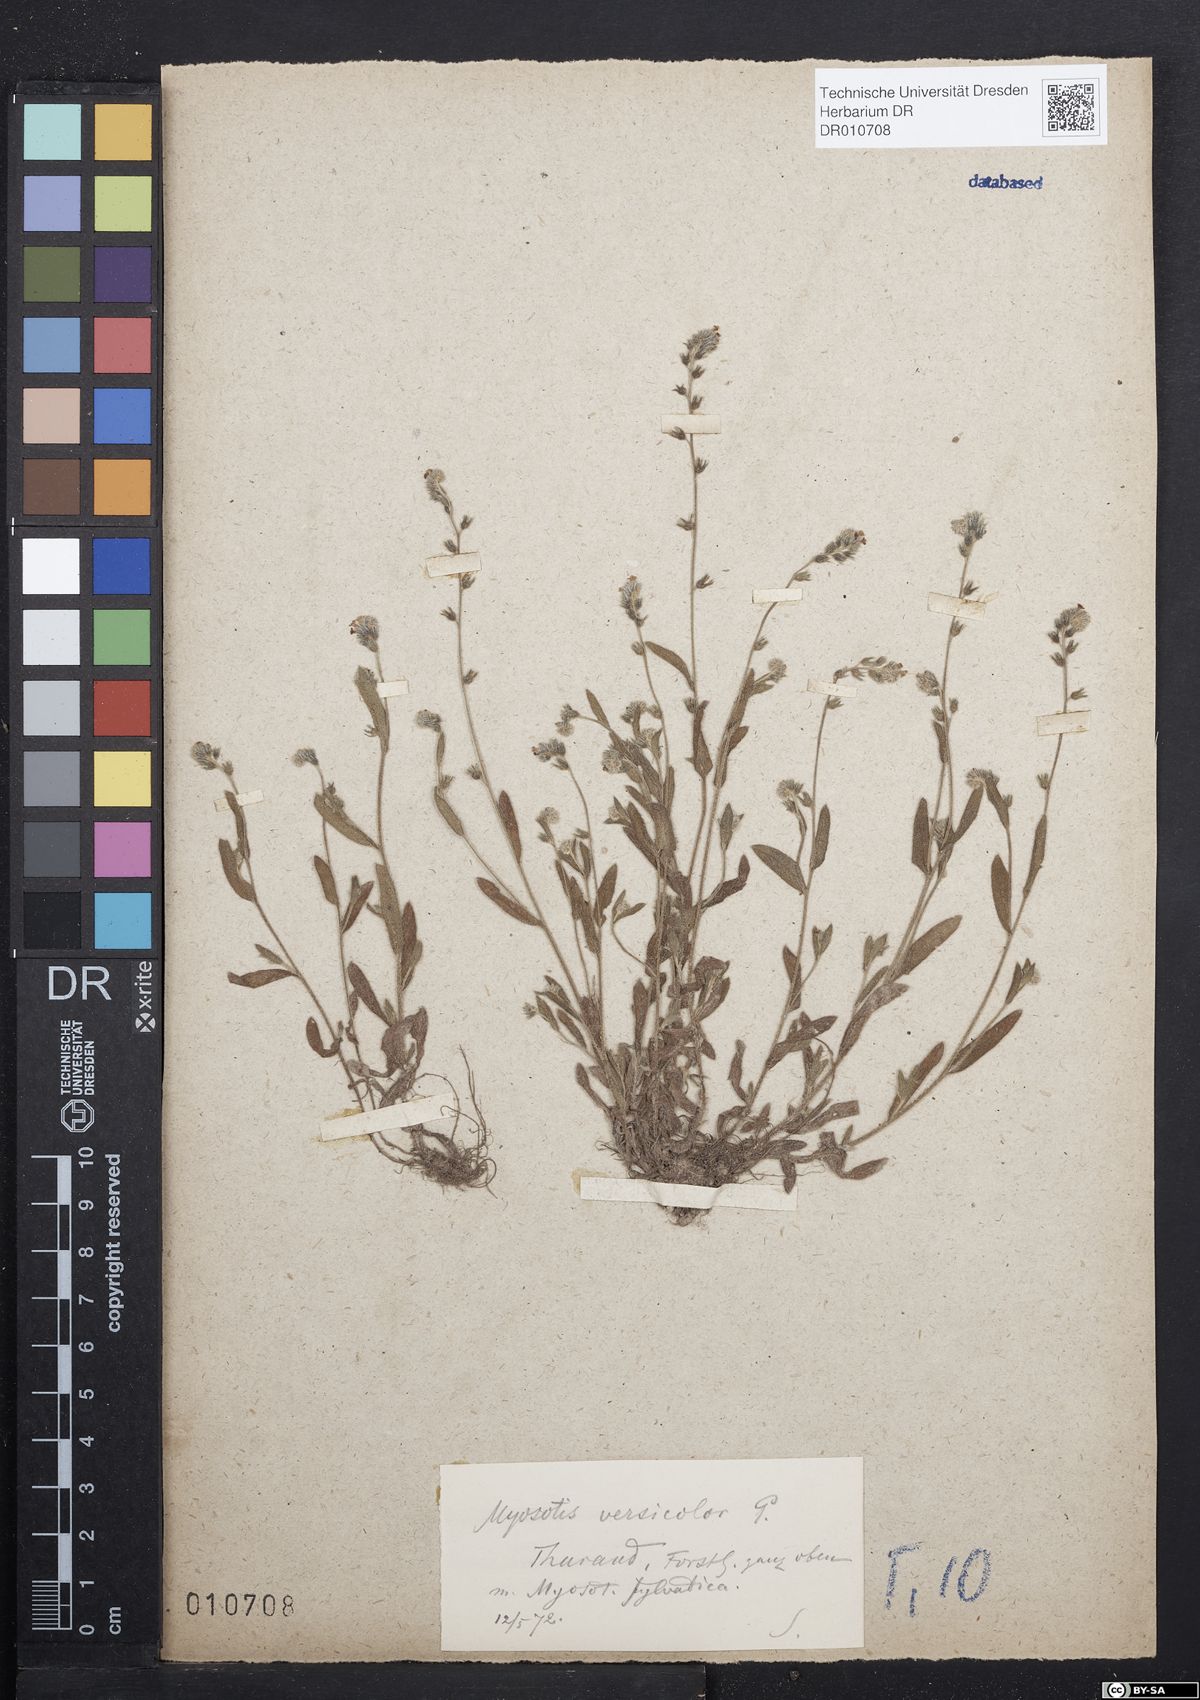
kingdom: Plantae
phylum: Tracheophyta
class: Magnoliopsida
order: Boraginales
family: Boraginaceae
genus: Myosotis
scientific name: Myosotis discolor
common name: Changing forget-me-not
